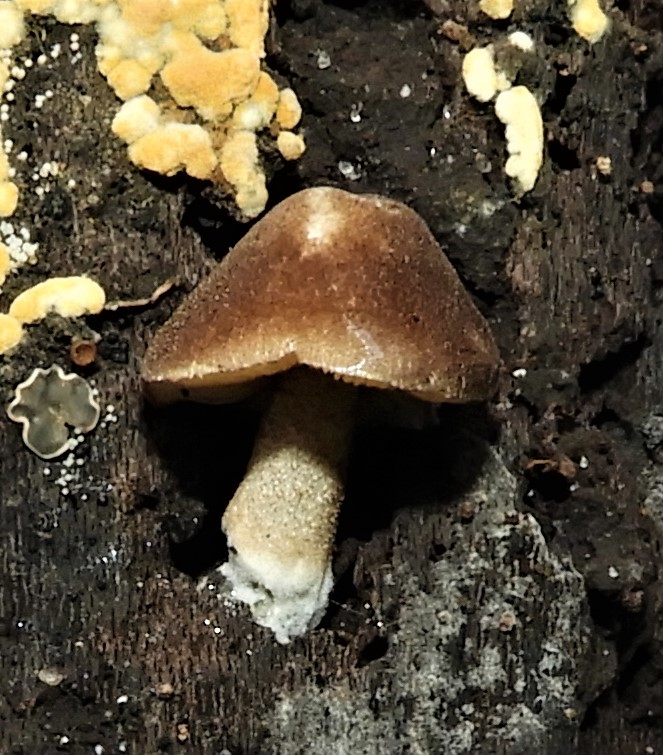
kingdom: Fungi
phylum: Basidiomycota
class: Agaricomycetes
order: Agaricales
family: Pluteaceae
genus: Pluteus
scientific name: Pluteus
